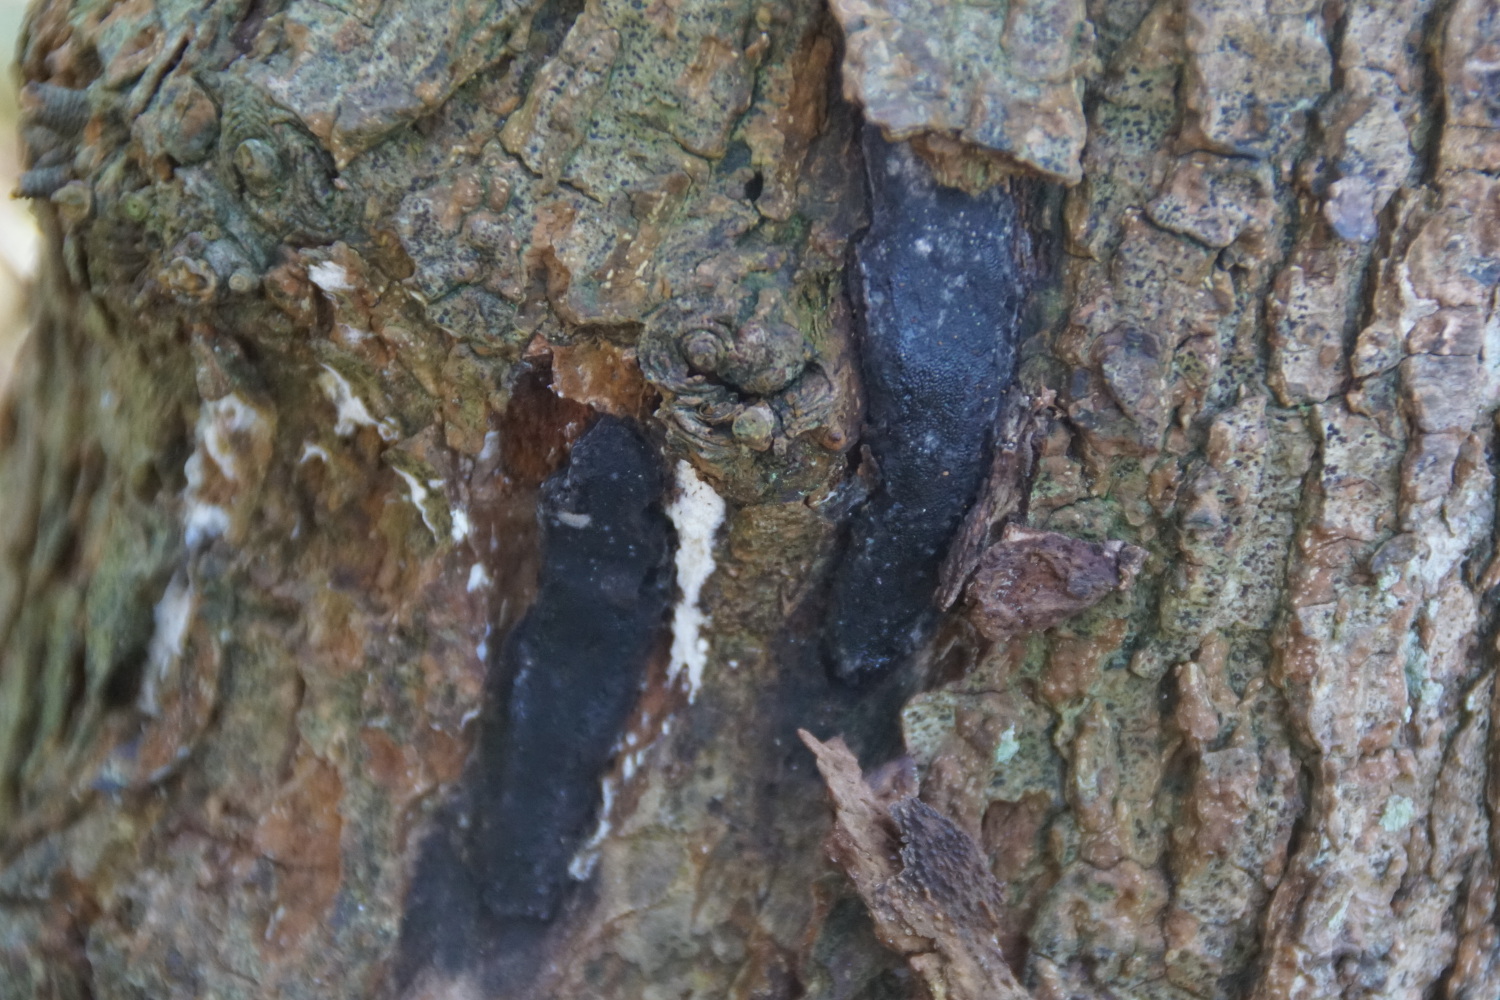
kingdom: Fungi
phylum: Ascomycota
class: Sordariomycetes
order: Boliniales
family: Boliniaceae
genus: Camarops
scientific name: Camarops polysperma
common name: elle-kulsnegl
